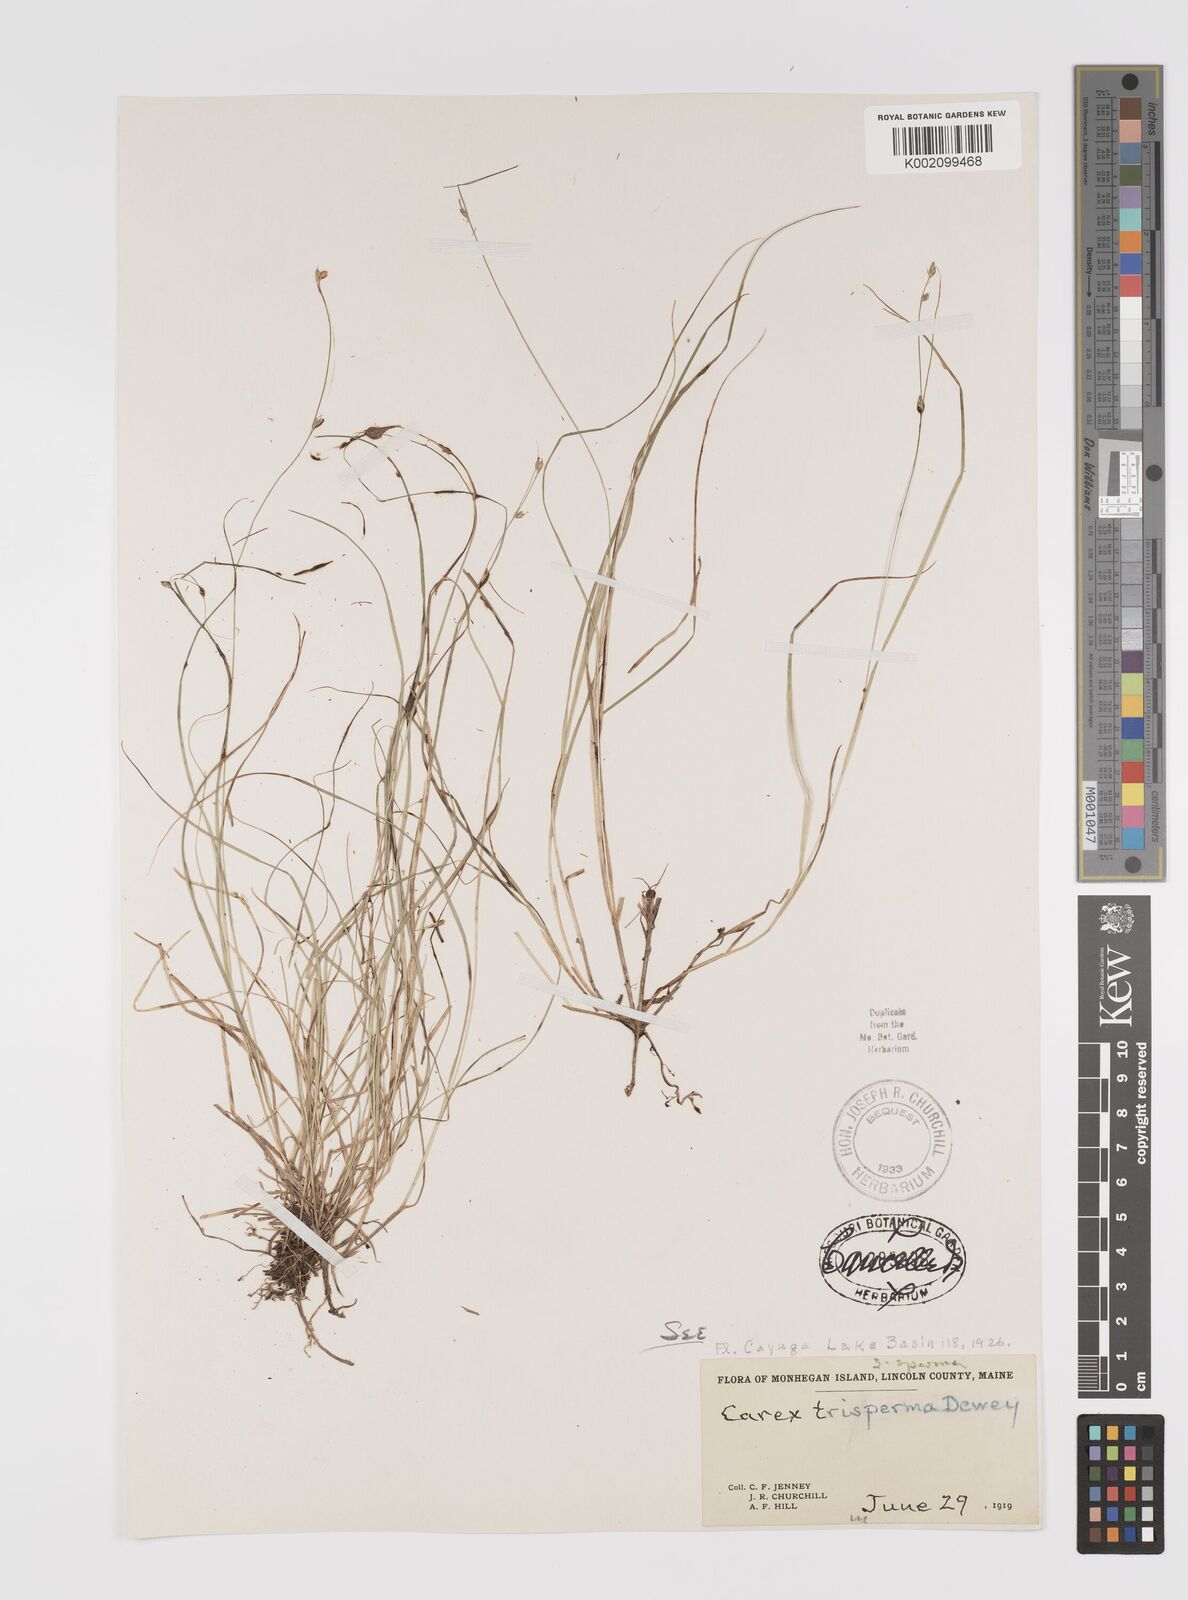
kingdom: Plantae
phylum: Tracheophyta
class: Liliopsida
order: Poales
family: Cyperaceae
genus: Carex
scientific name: Carex trisperma
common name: Three-seeded sedge
